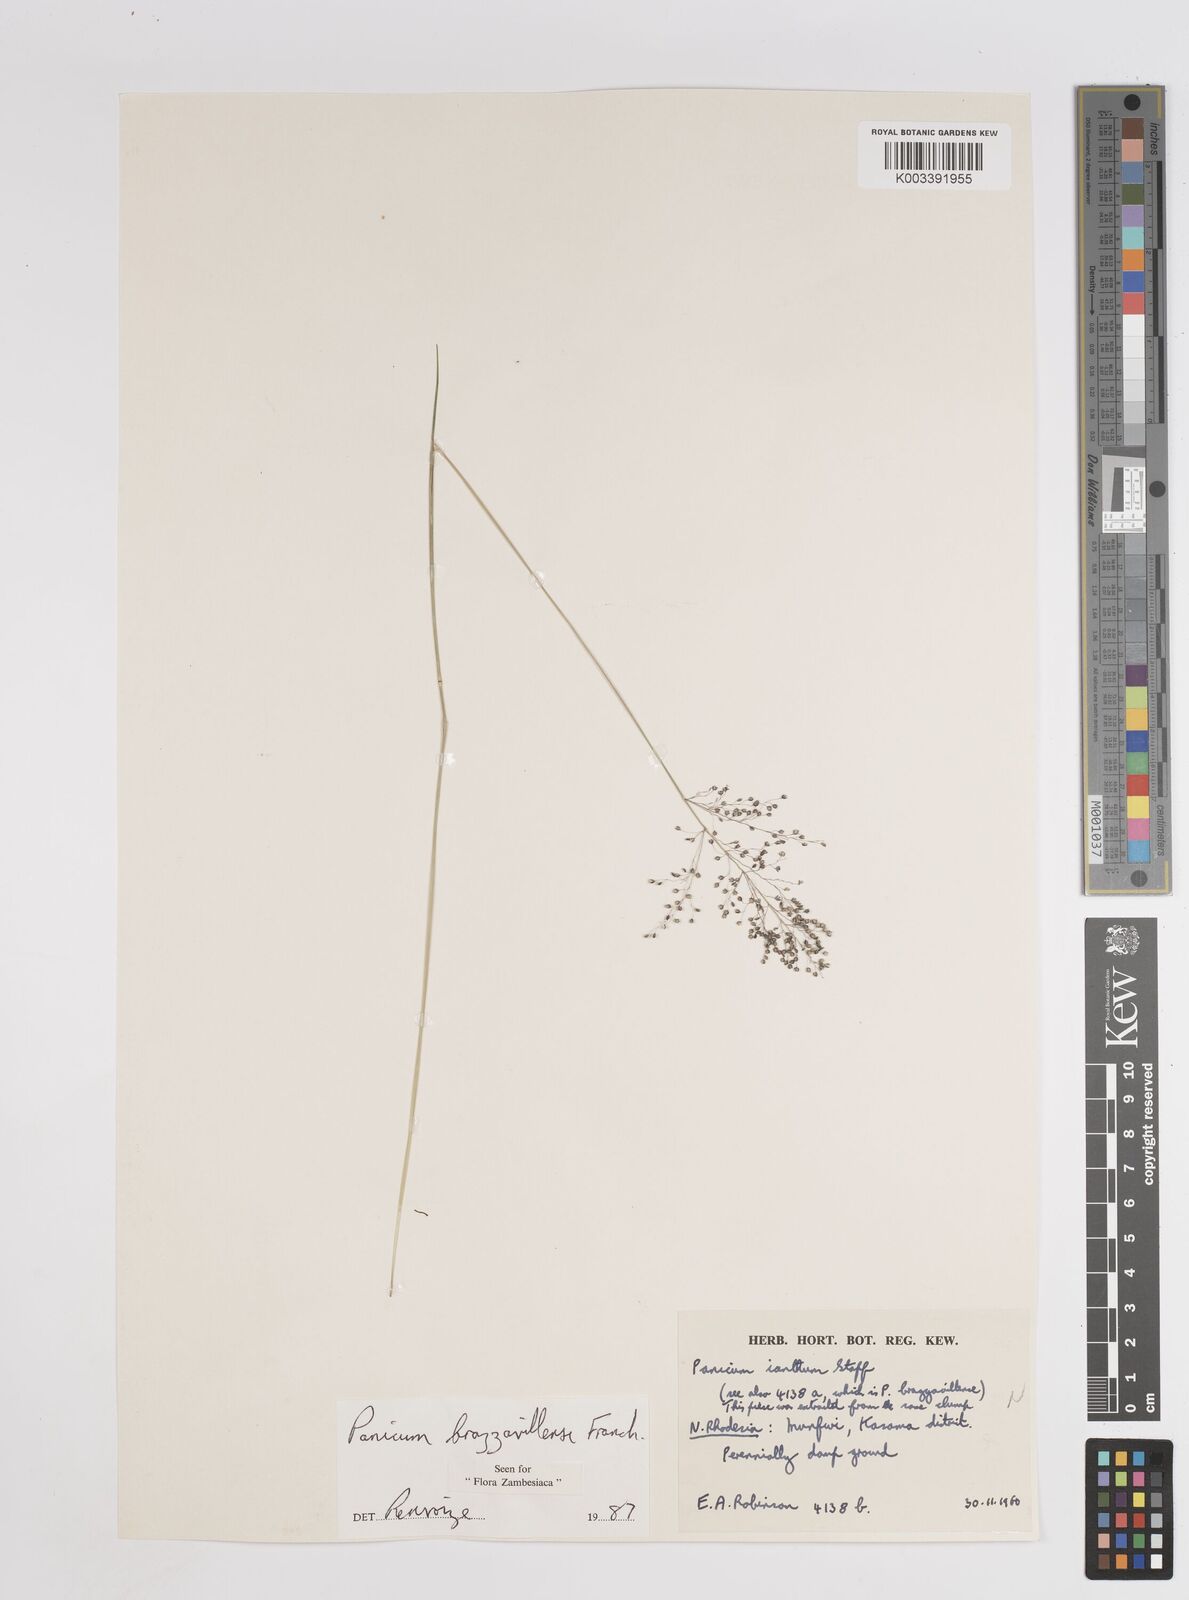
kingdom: Plantae
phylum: Tracheophyta
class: Liliopsida
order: Poales
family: Poaceae
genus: Trichanthecium
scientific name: Trichanthecium brazzavillense
